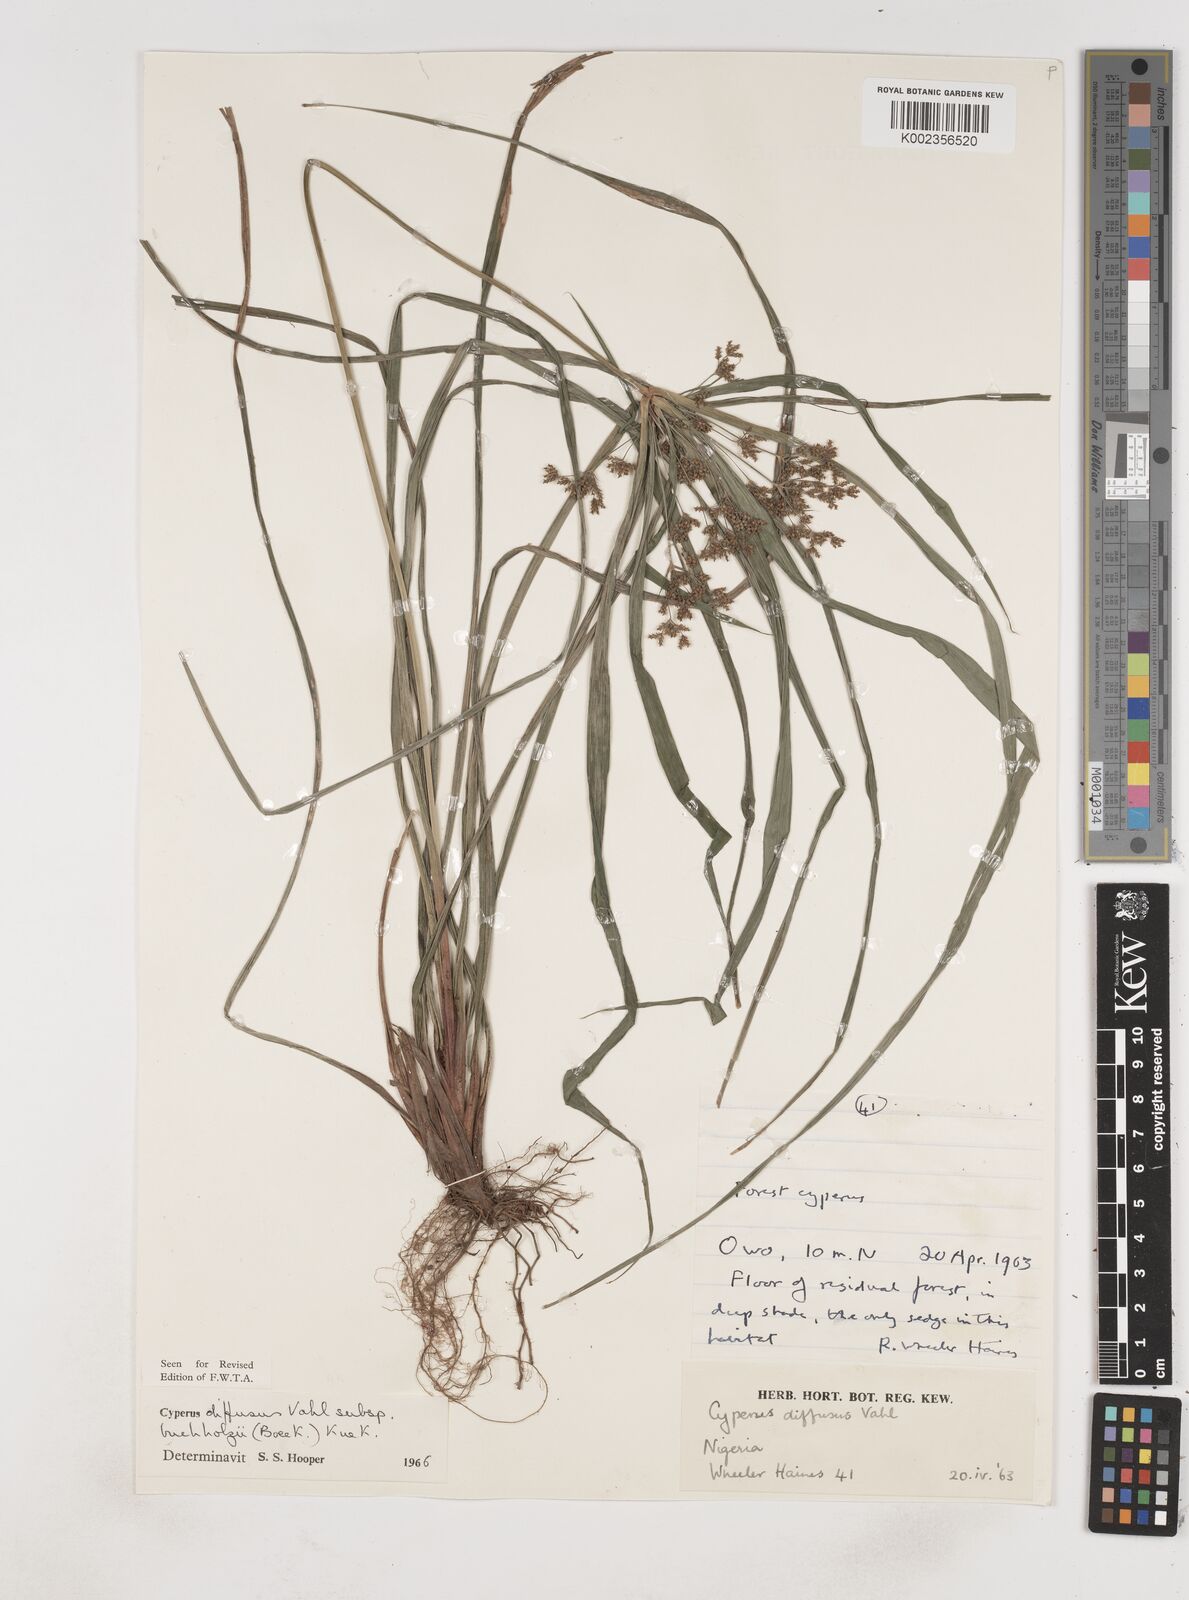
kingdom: Plantae
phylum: Tracheophyta
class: Liliopsida
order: Poales
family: Cyperaceae
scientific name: Cyperaceae
